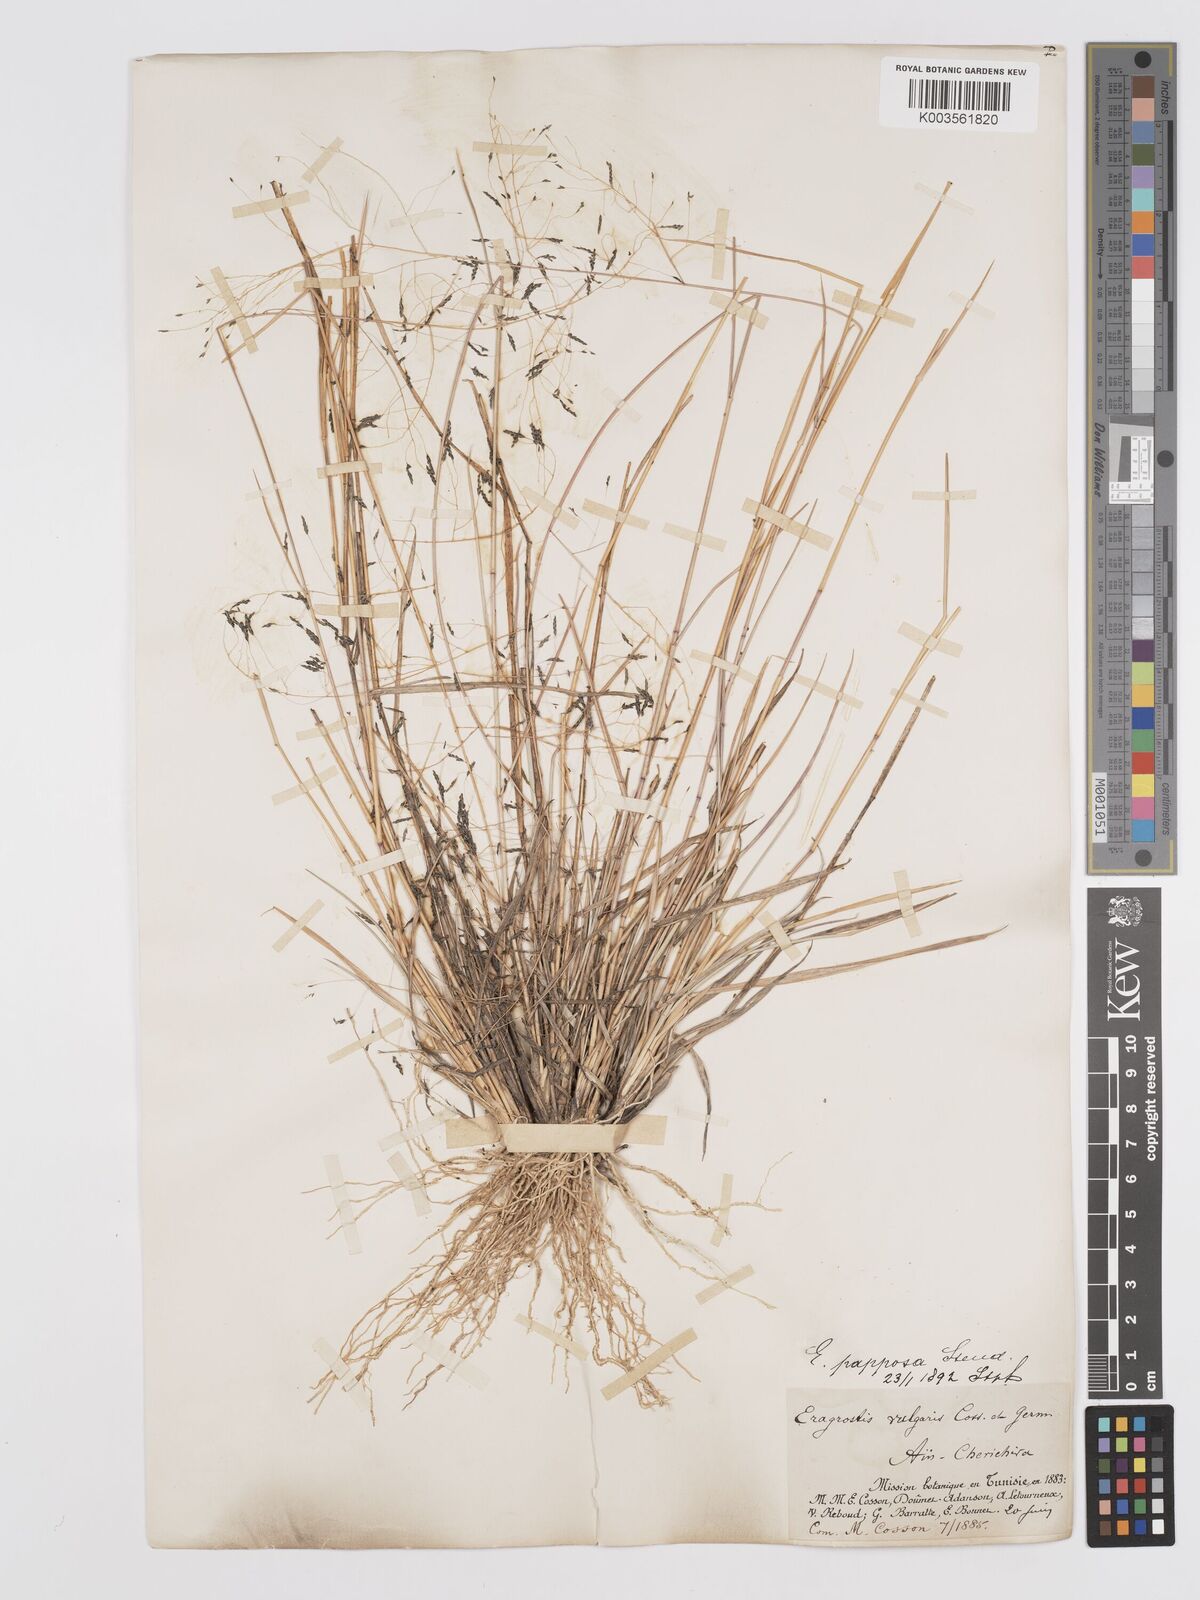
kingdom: Plantae
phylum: Tracheophyta
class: Liliopsida
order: Poales
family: Poaceae
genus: Eragrostis
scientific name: Eragrostis papposa
